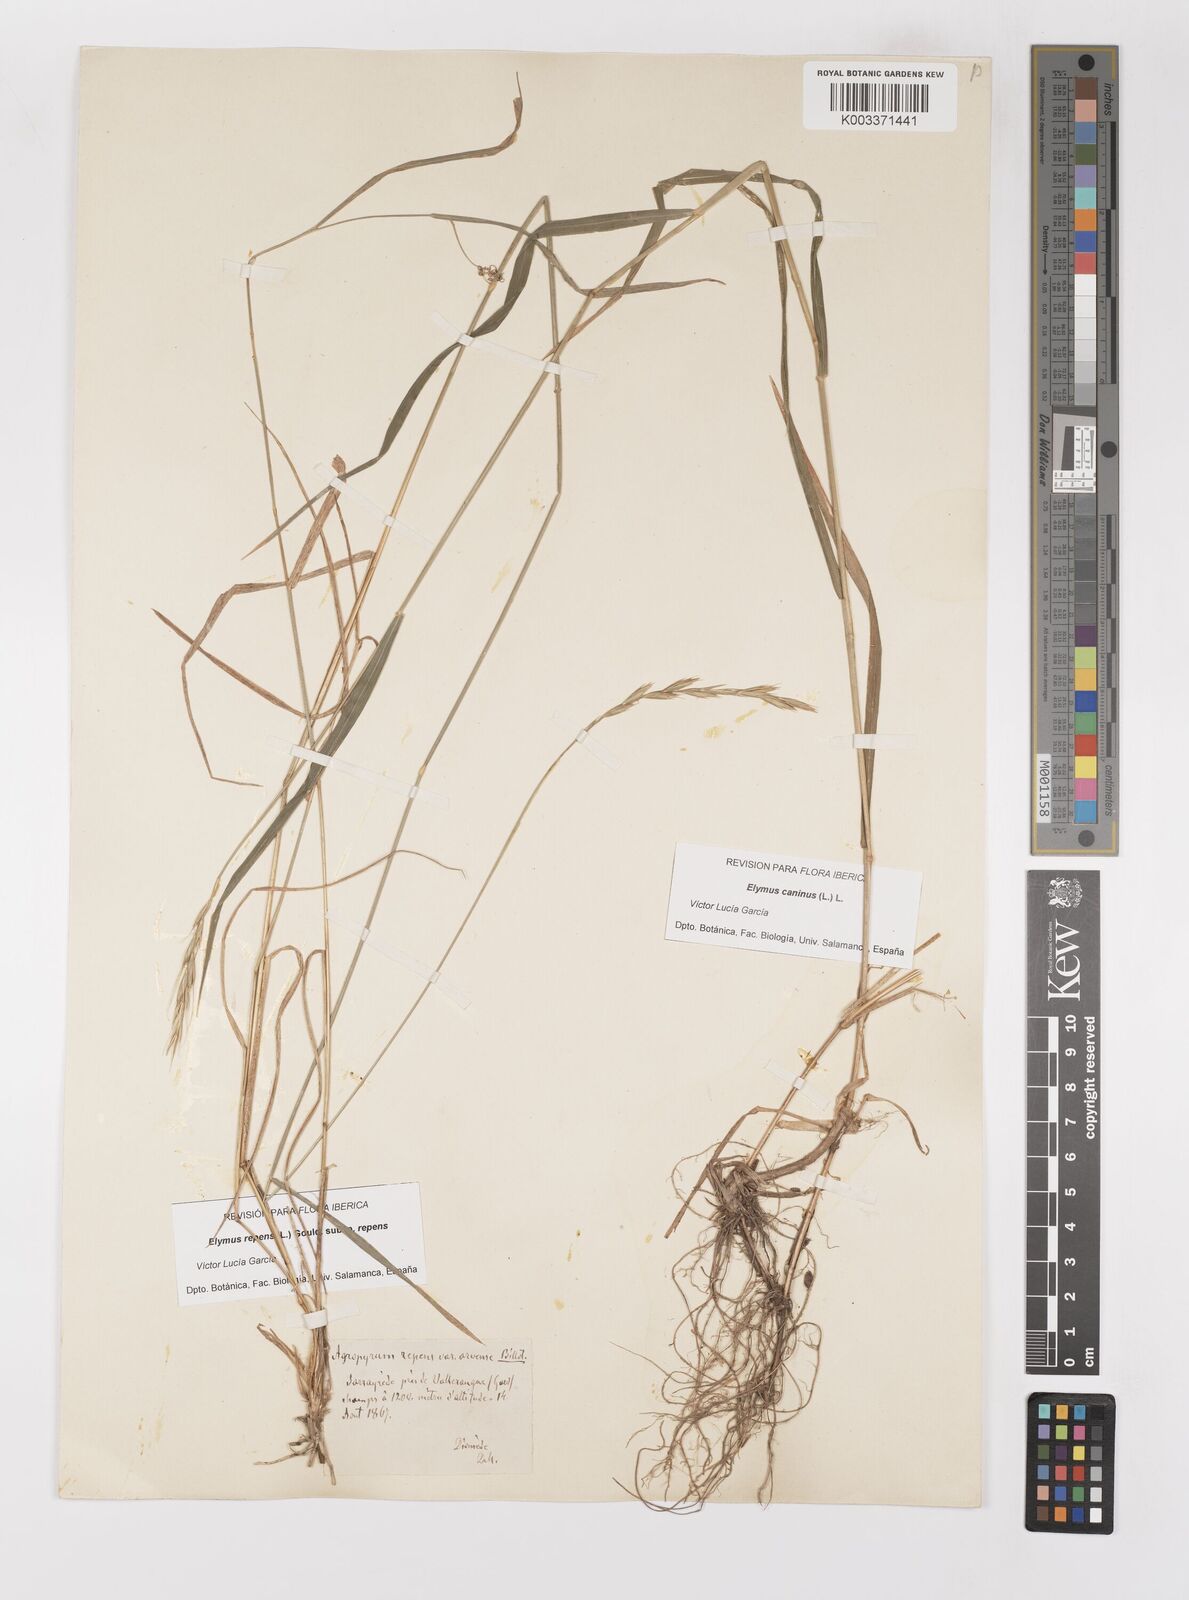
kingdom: Plantae
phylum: Tracheophyta
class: Liliopsida
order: Poales
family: Poaceae
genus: Elymus
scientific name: Elymus repens
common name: Quackgrass
